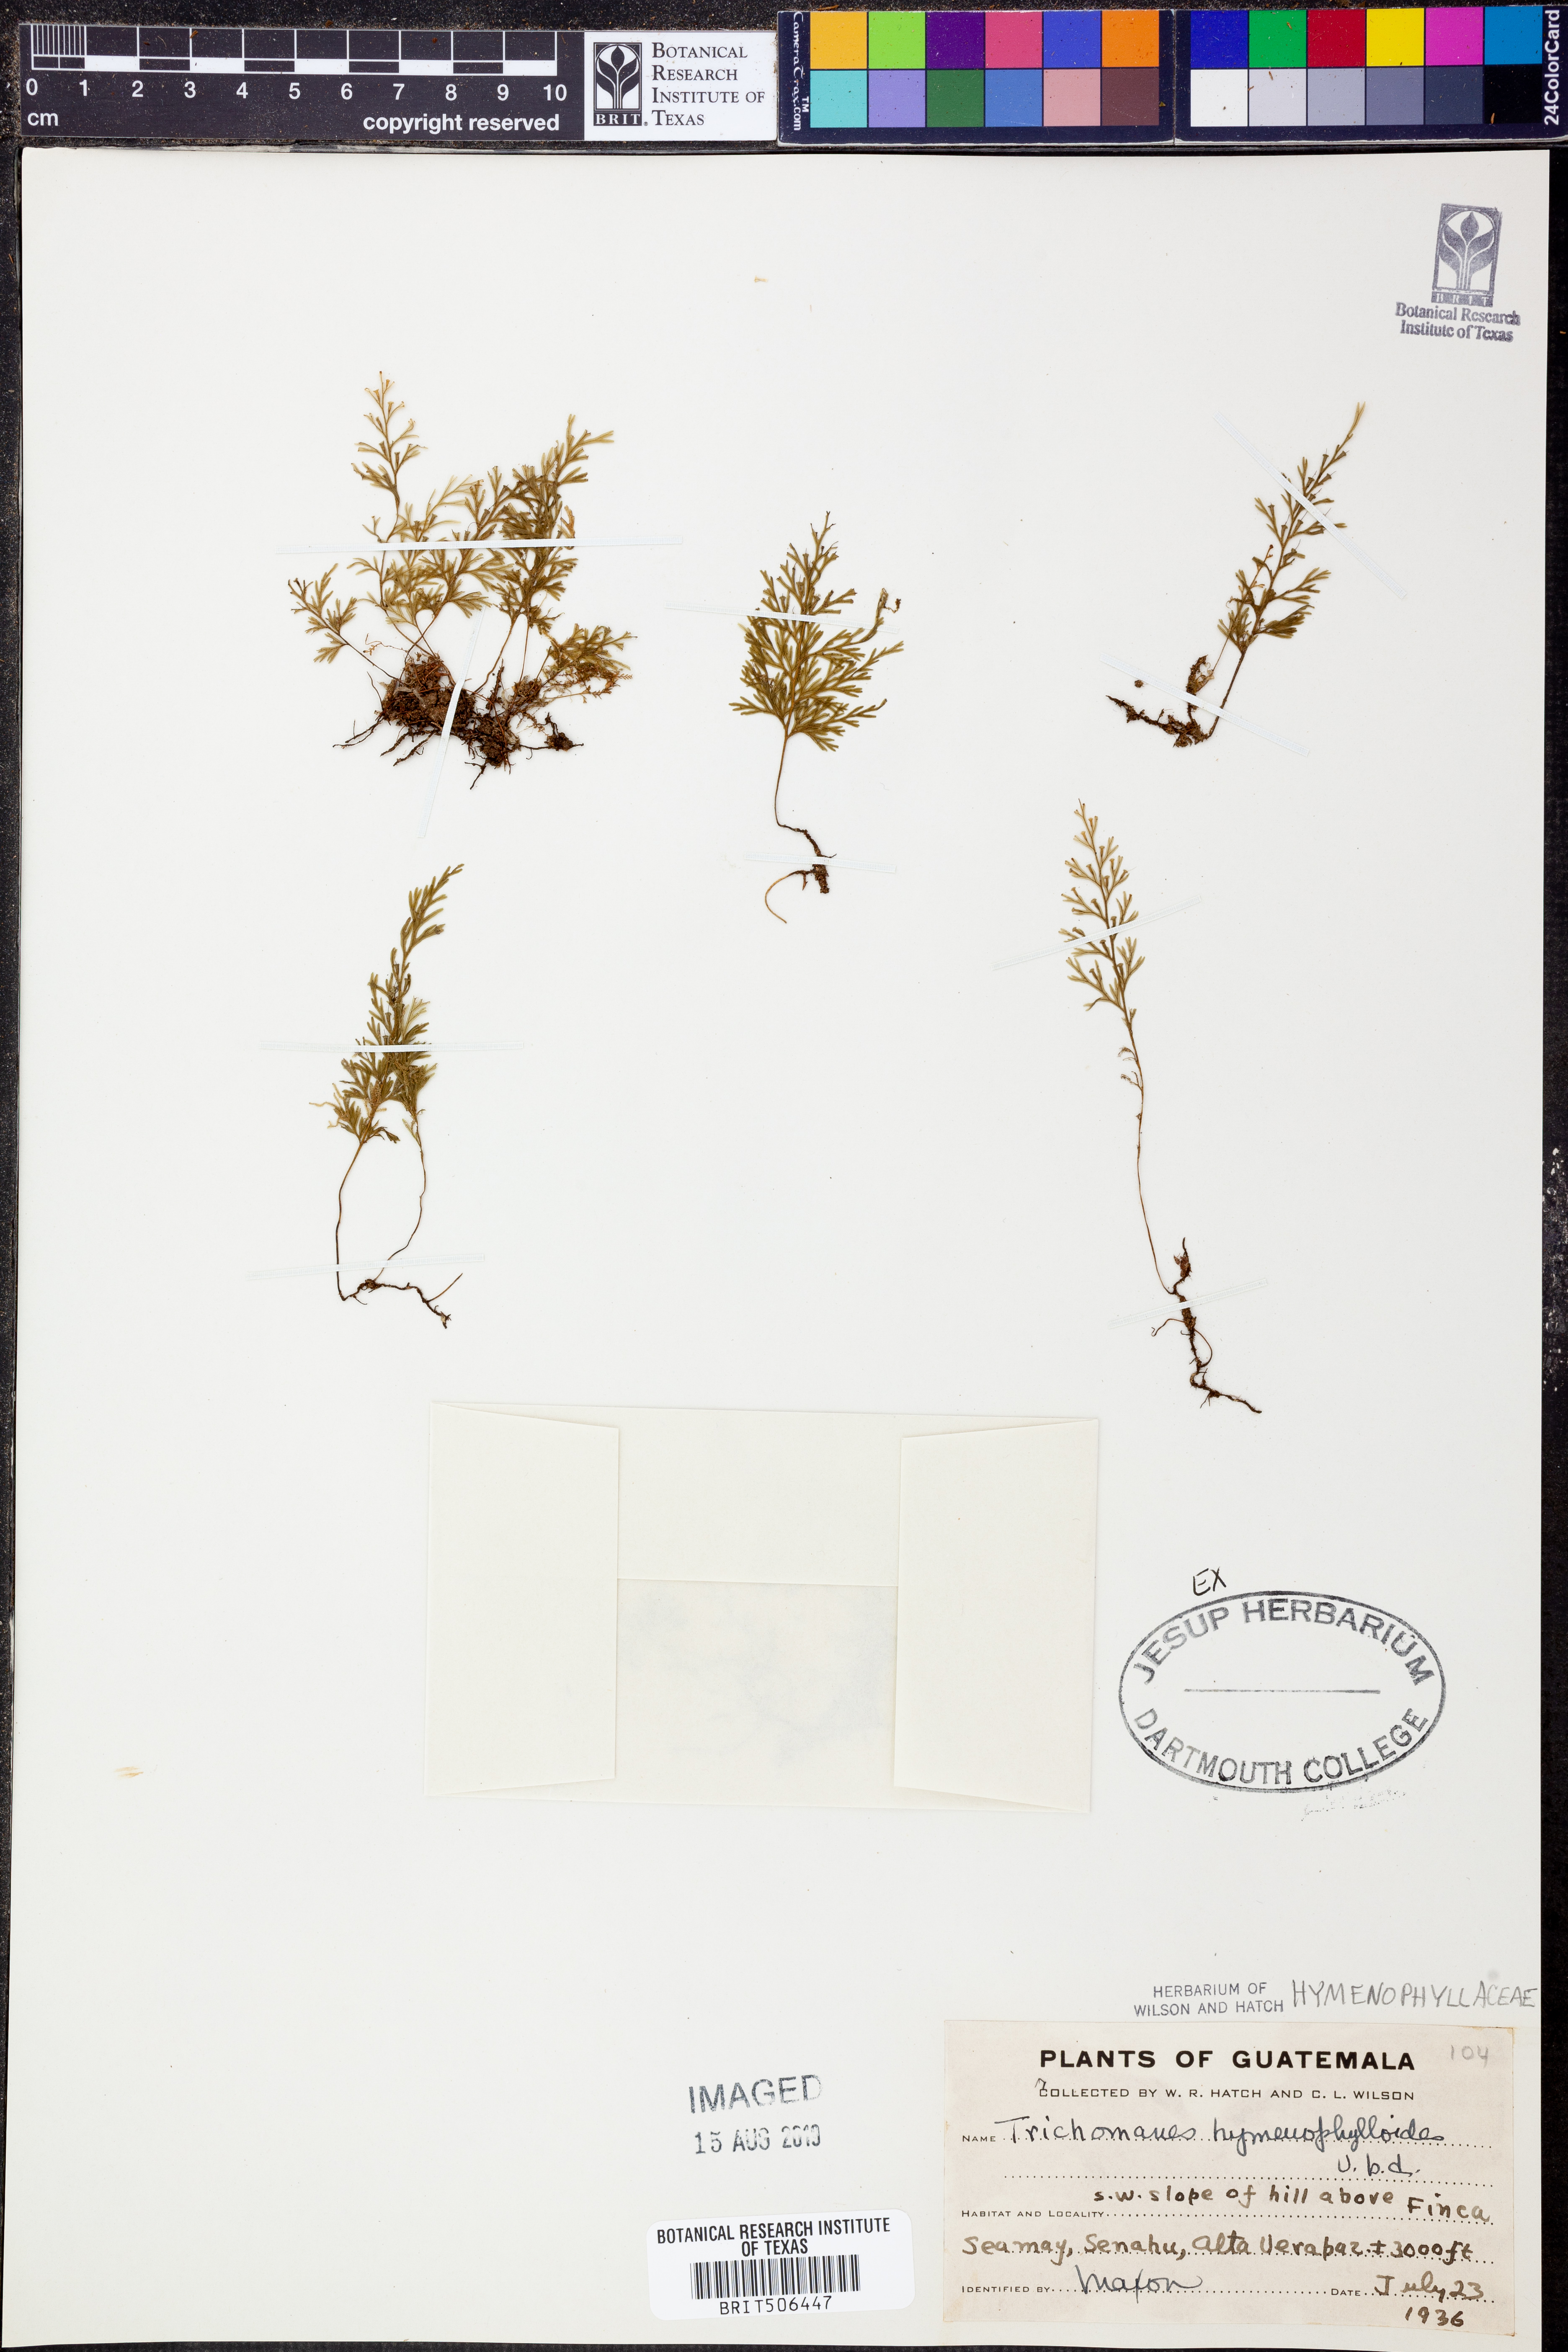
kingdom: Plantae
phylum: Tracheophyta
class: Polypodiopsida
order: Hymenophyllales
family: Hymenophyllaceae
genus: Polyphlebium
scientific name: Polyphlebium hymenophylloides
